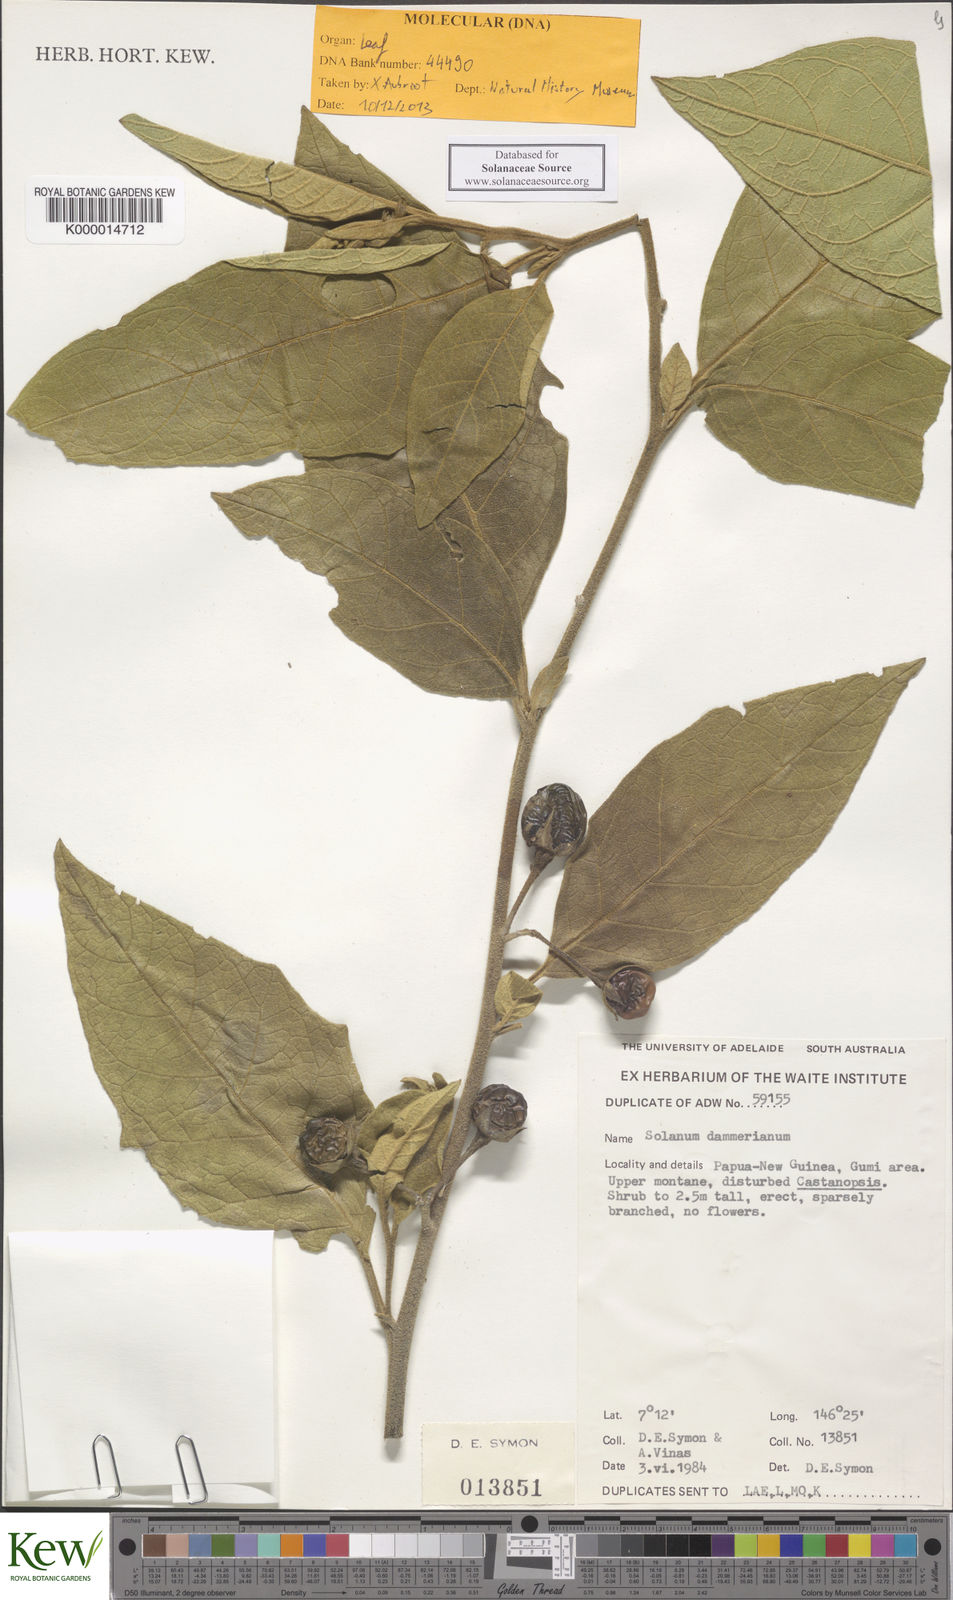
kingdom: Plantae
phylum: Tracheophyta
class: Magnoliopsida
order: Solanales
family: Solanaceae
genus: Solanum
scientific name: Solanum dammerianum
